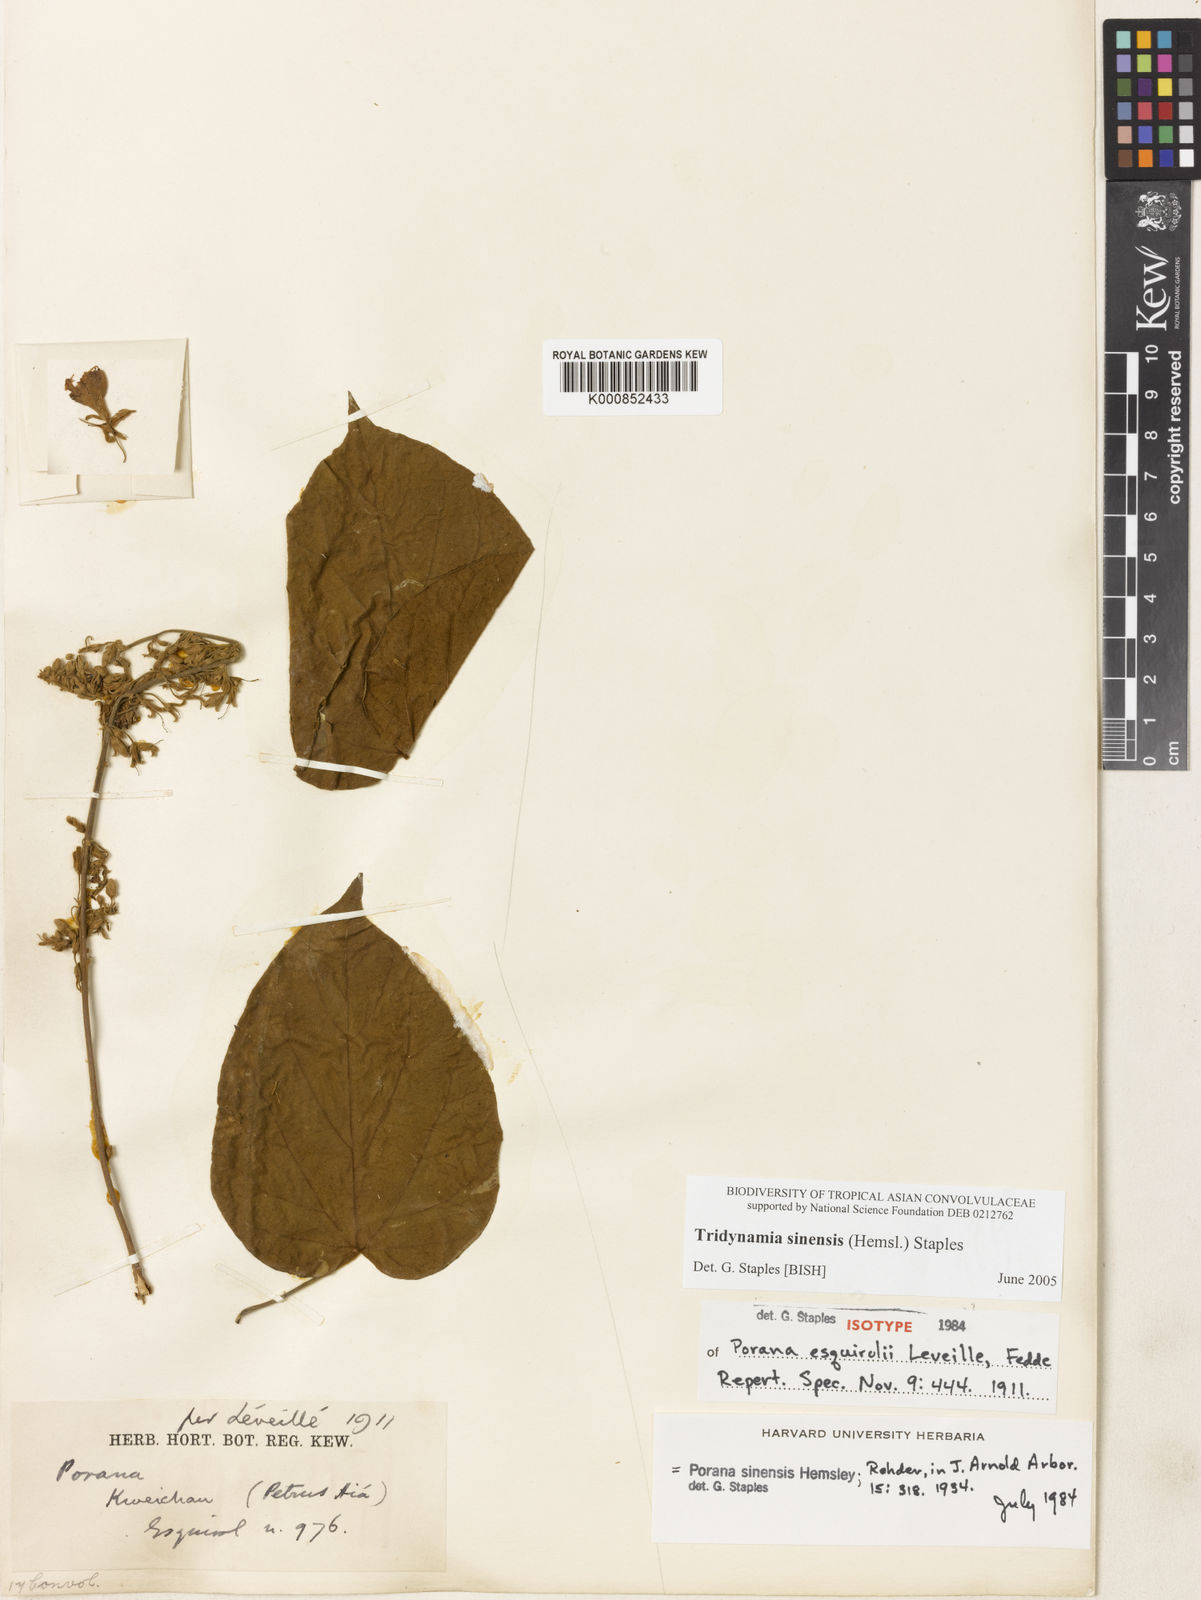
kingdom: Plantae
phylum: Tracheophyta
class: Magnoliopsida
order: Solanales
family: Convolvulaceae
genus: Tridynamia
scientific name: Tridynamia sinensis
